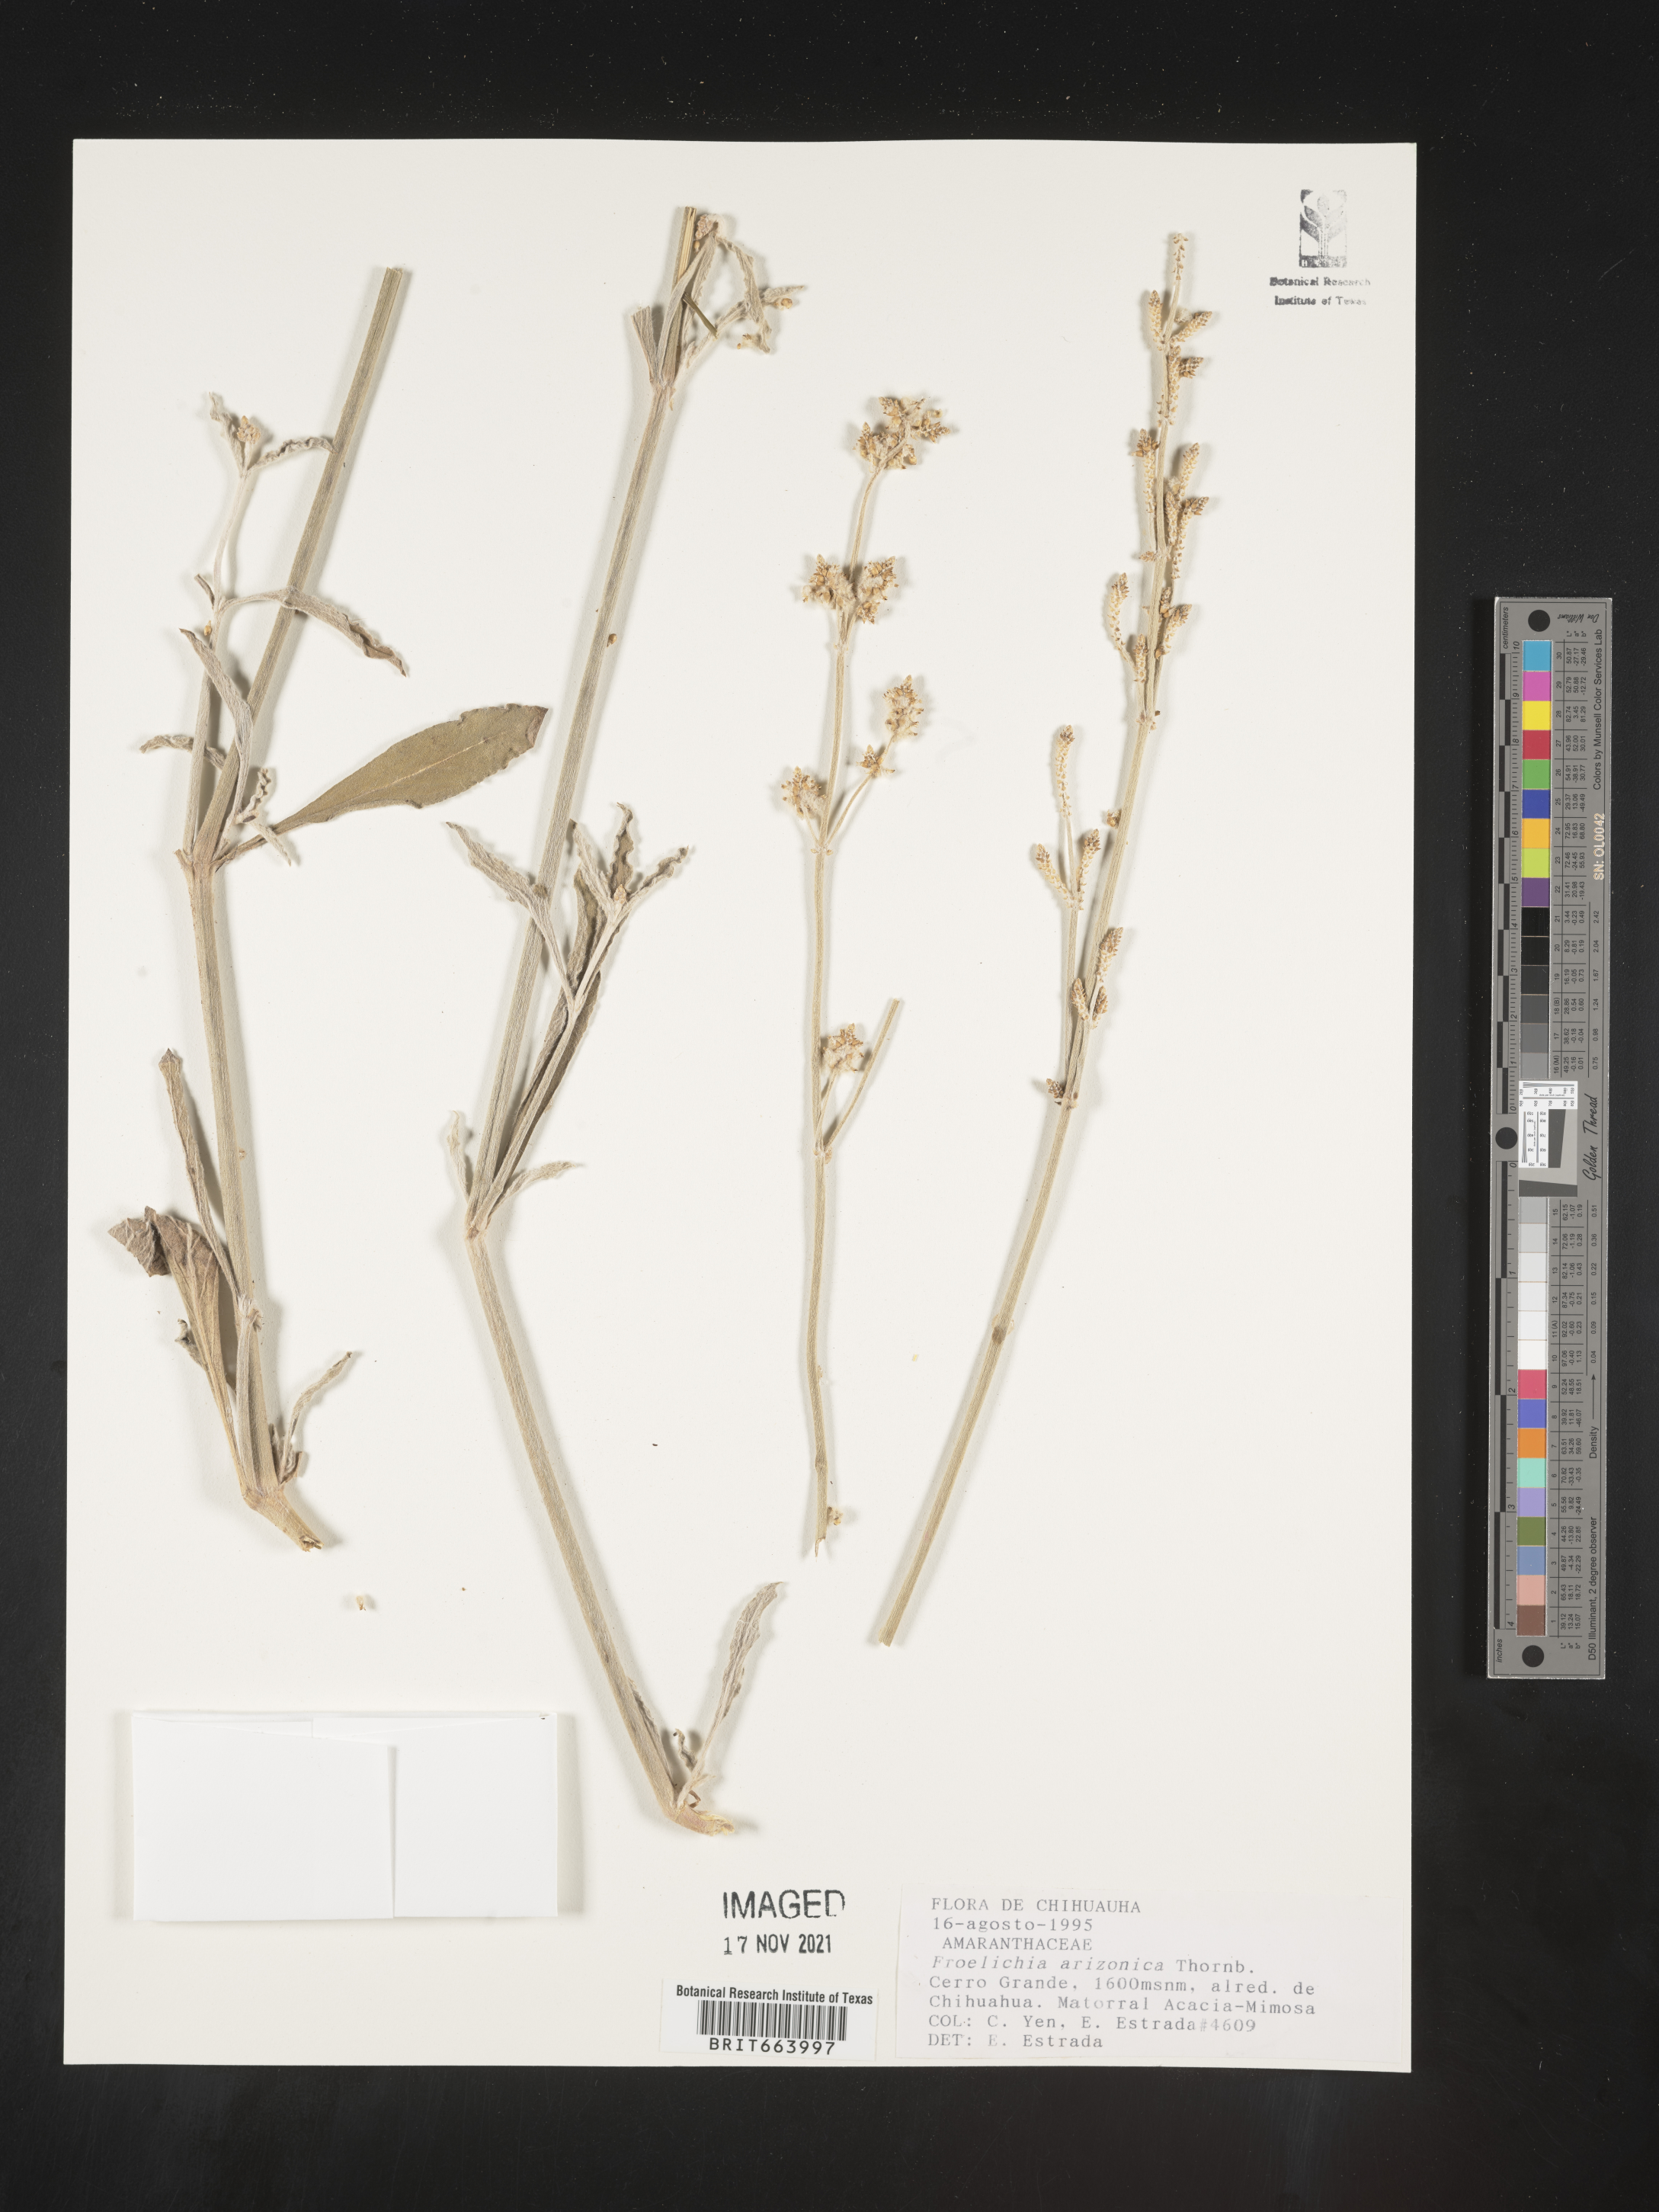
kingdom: Plantae
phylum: Tracheophyta
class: Magnoliopsida
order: Caryophyllales
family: Amaranthaceae
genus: Froelichia
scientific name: Froelichia
